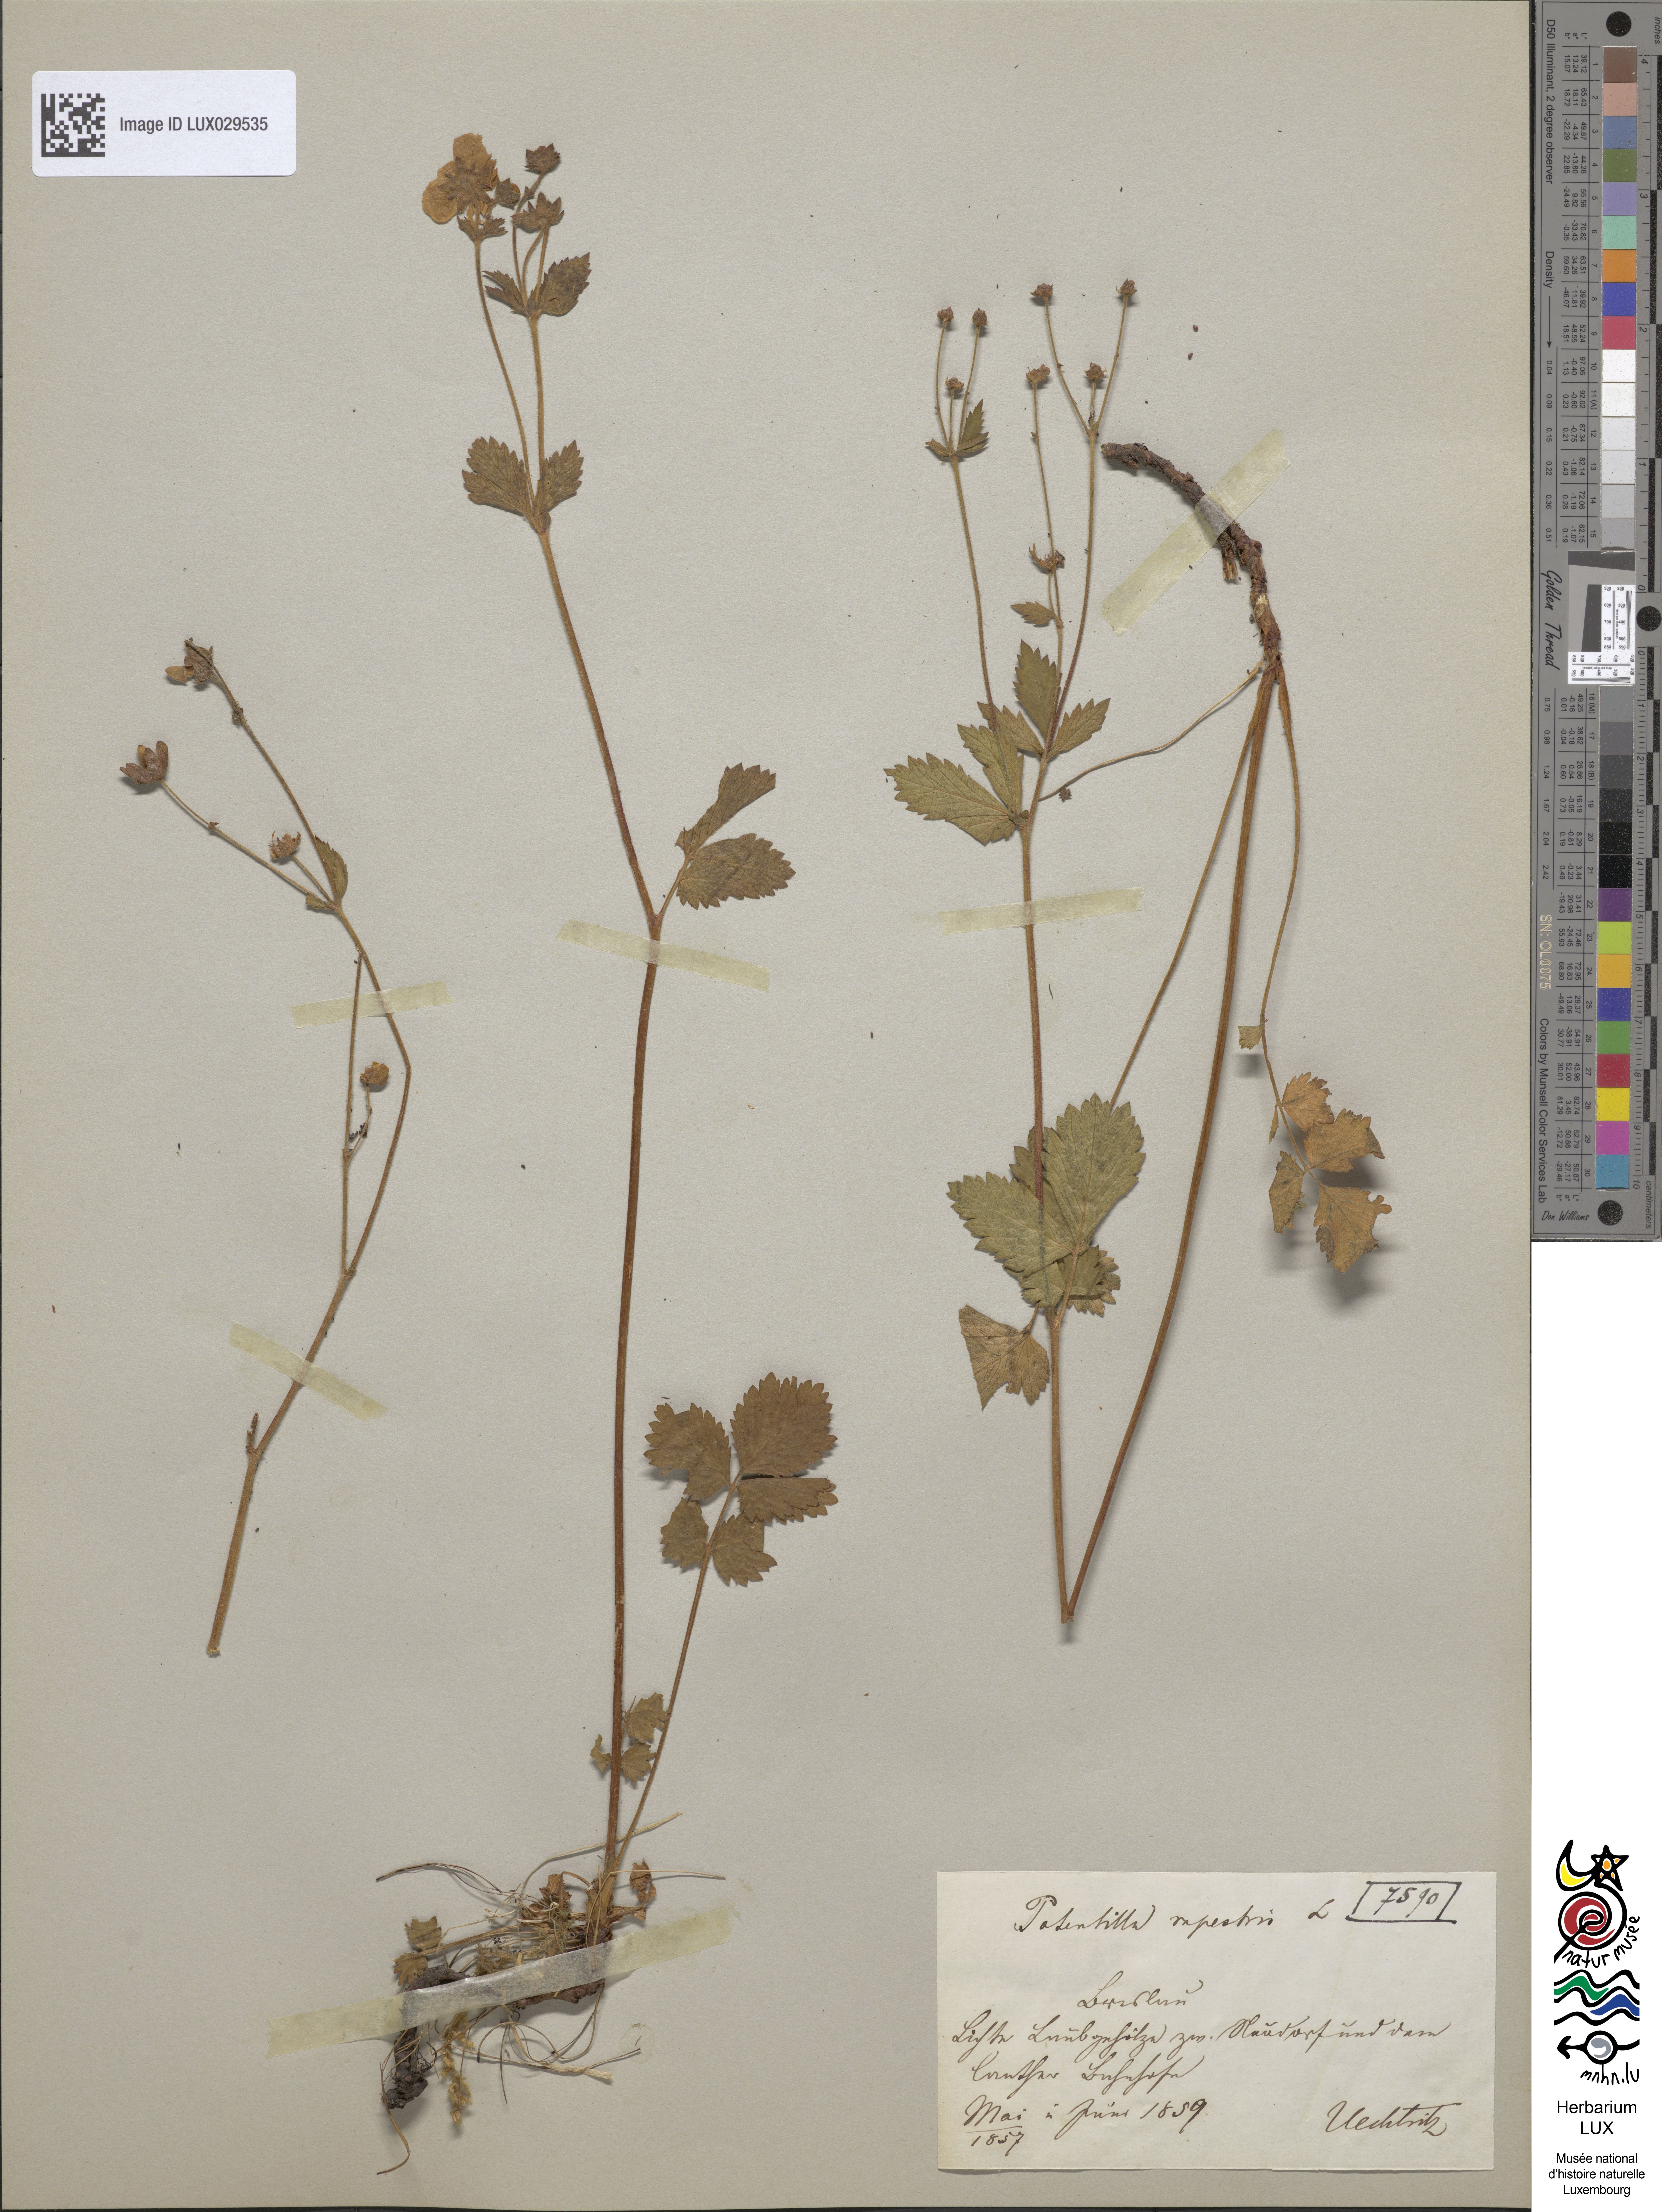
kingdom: Plantae
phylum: Tracheophyta
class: Magnoliopsida
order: Rosales
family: Rosaceae
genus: Drymocallis
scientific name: Drymocallis rupestris
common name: Rock cinquefoil
